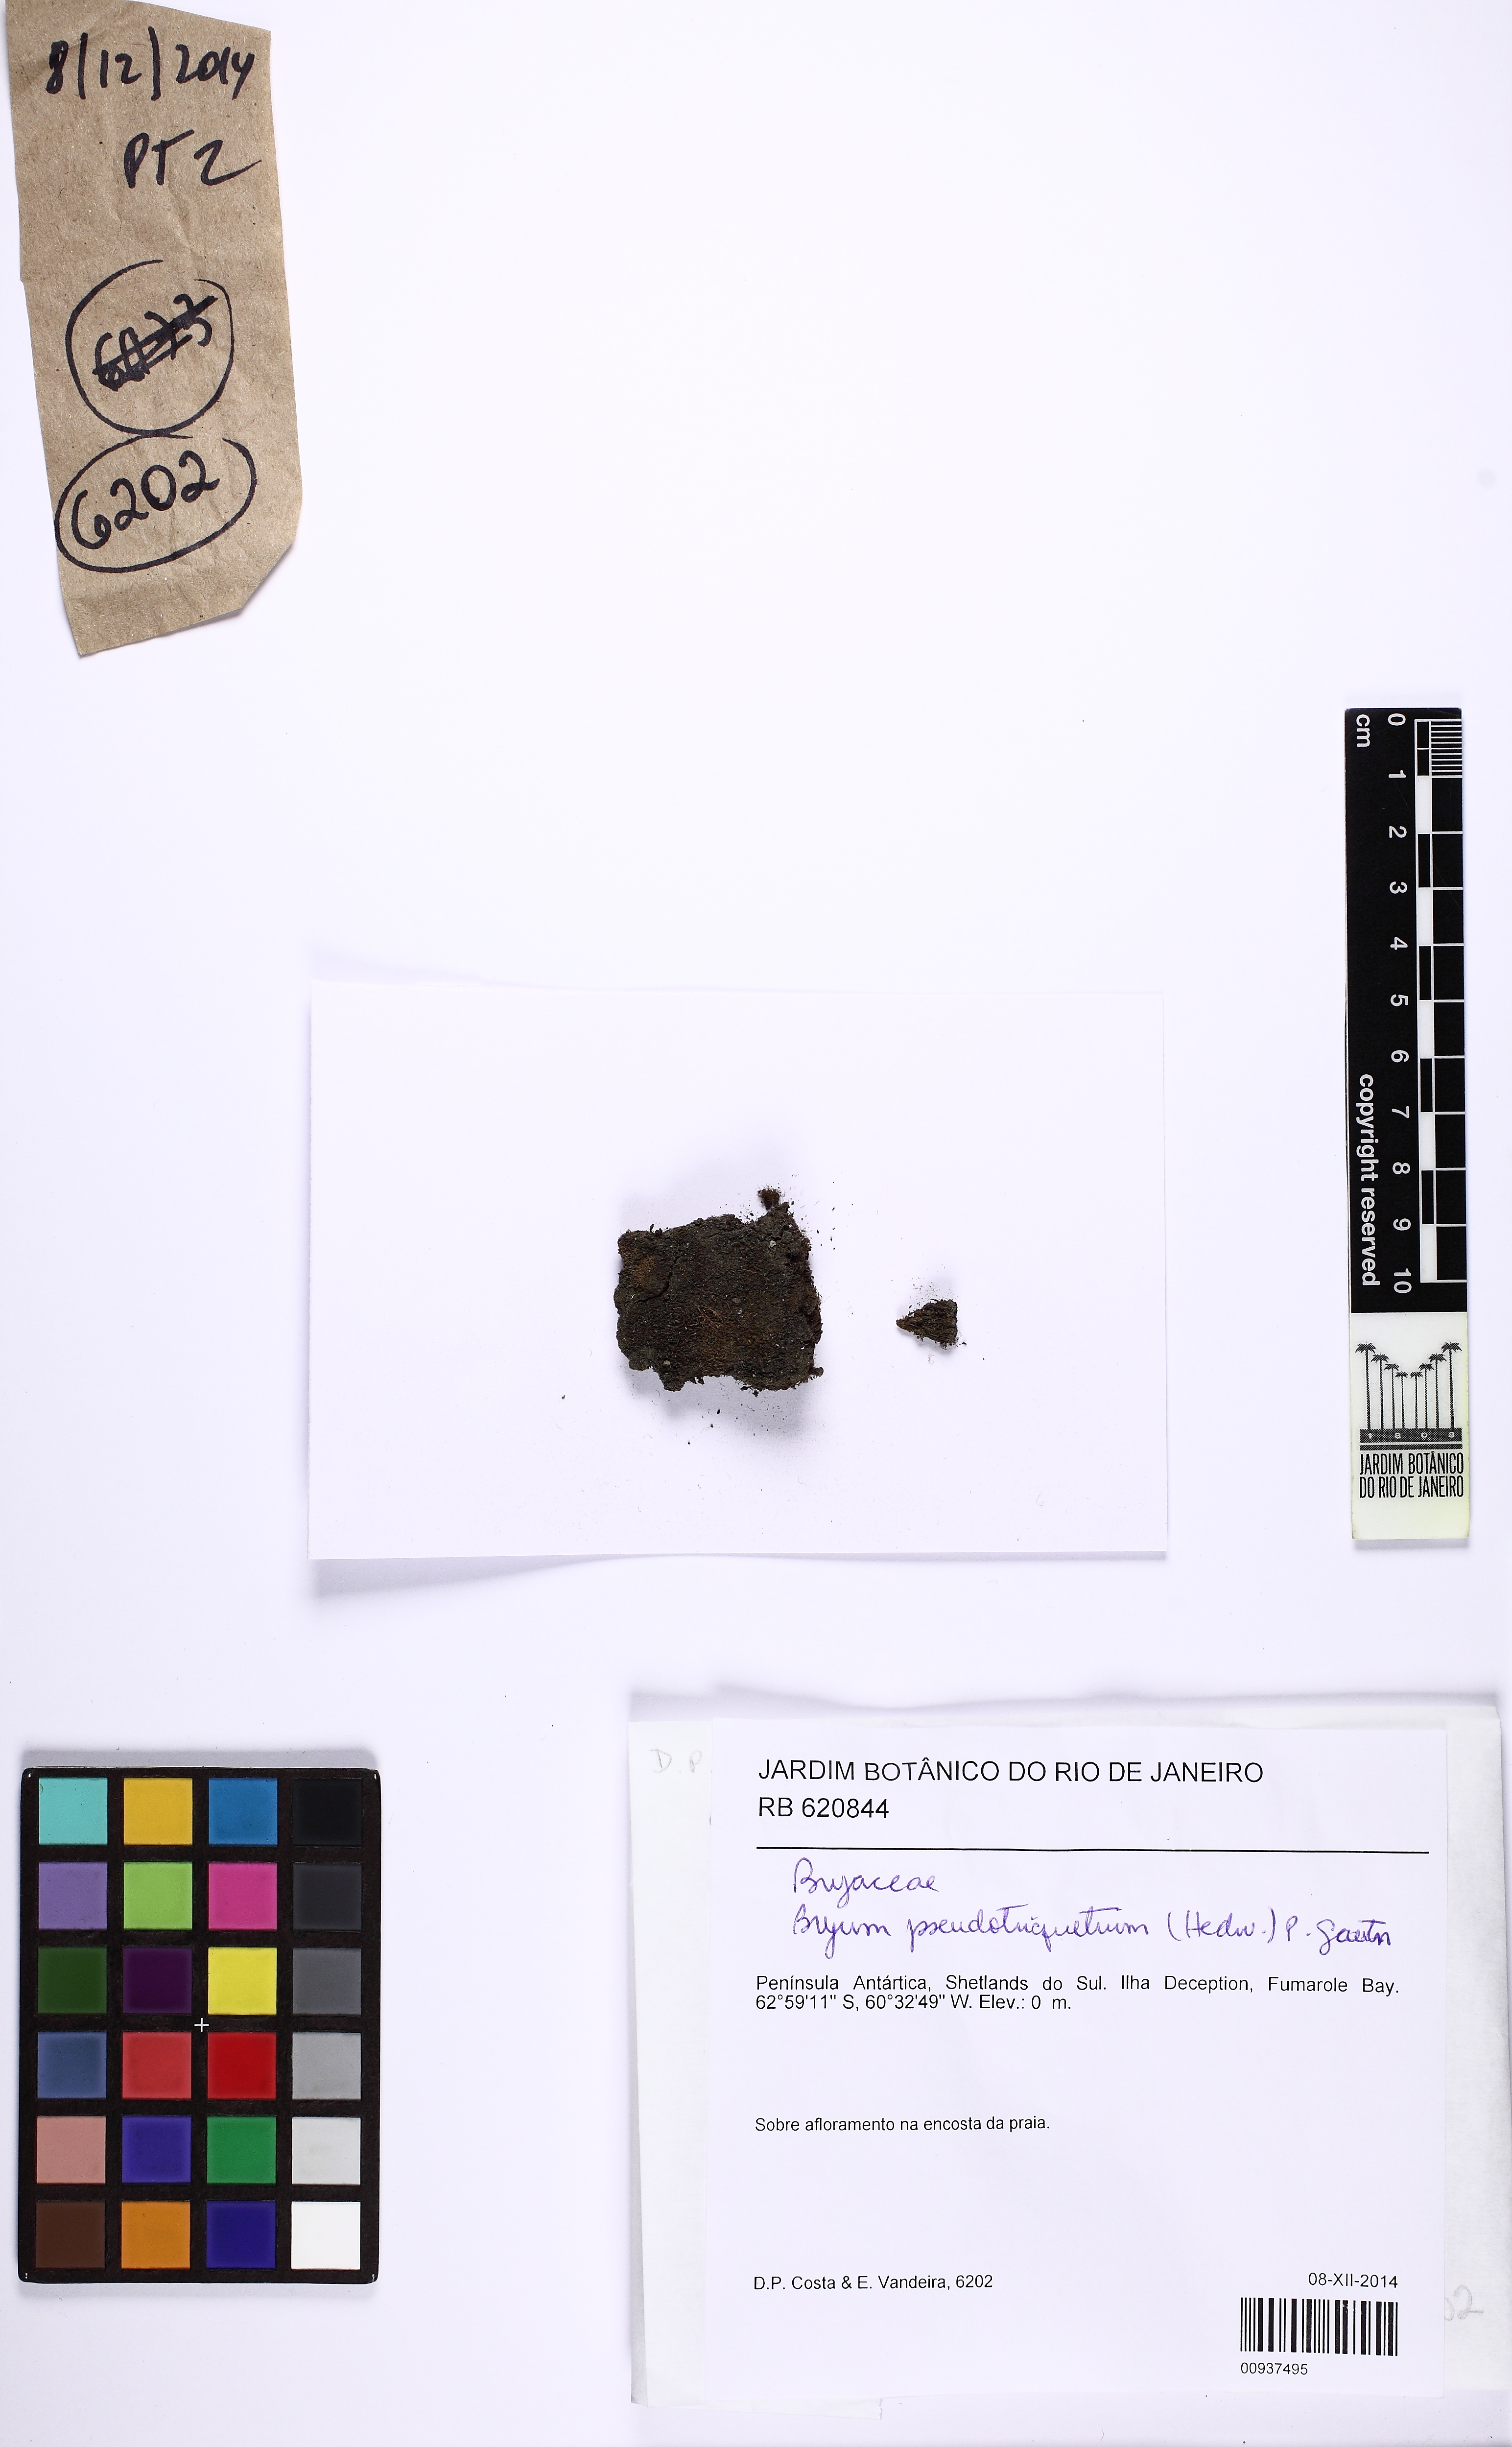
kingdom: Plantae
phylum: Bryophyta
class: Bryopsida
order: Hypnales
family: Scorpidiaceae
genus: Sanionia
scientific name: Sanionia uncinata
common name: Sickle moss
